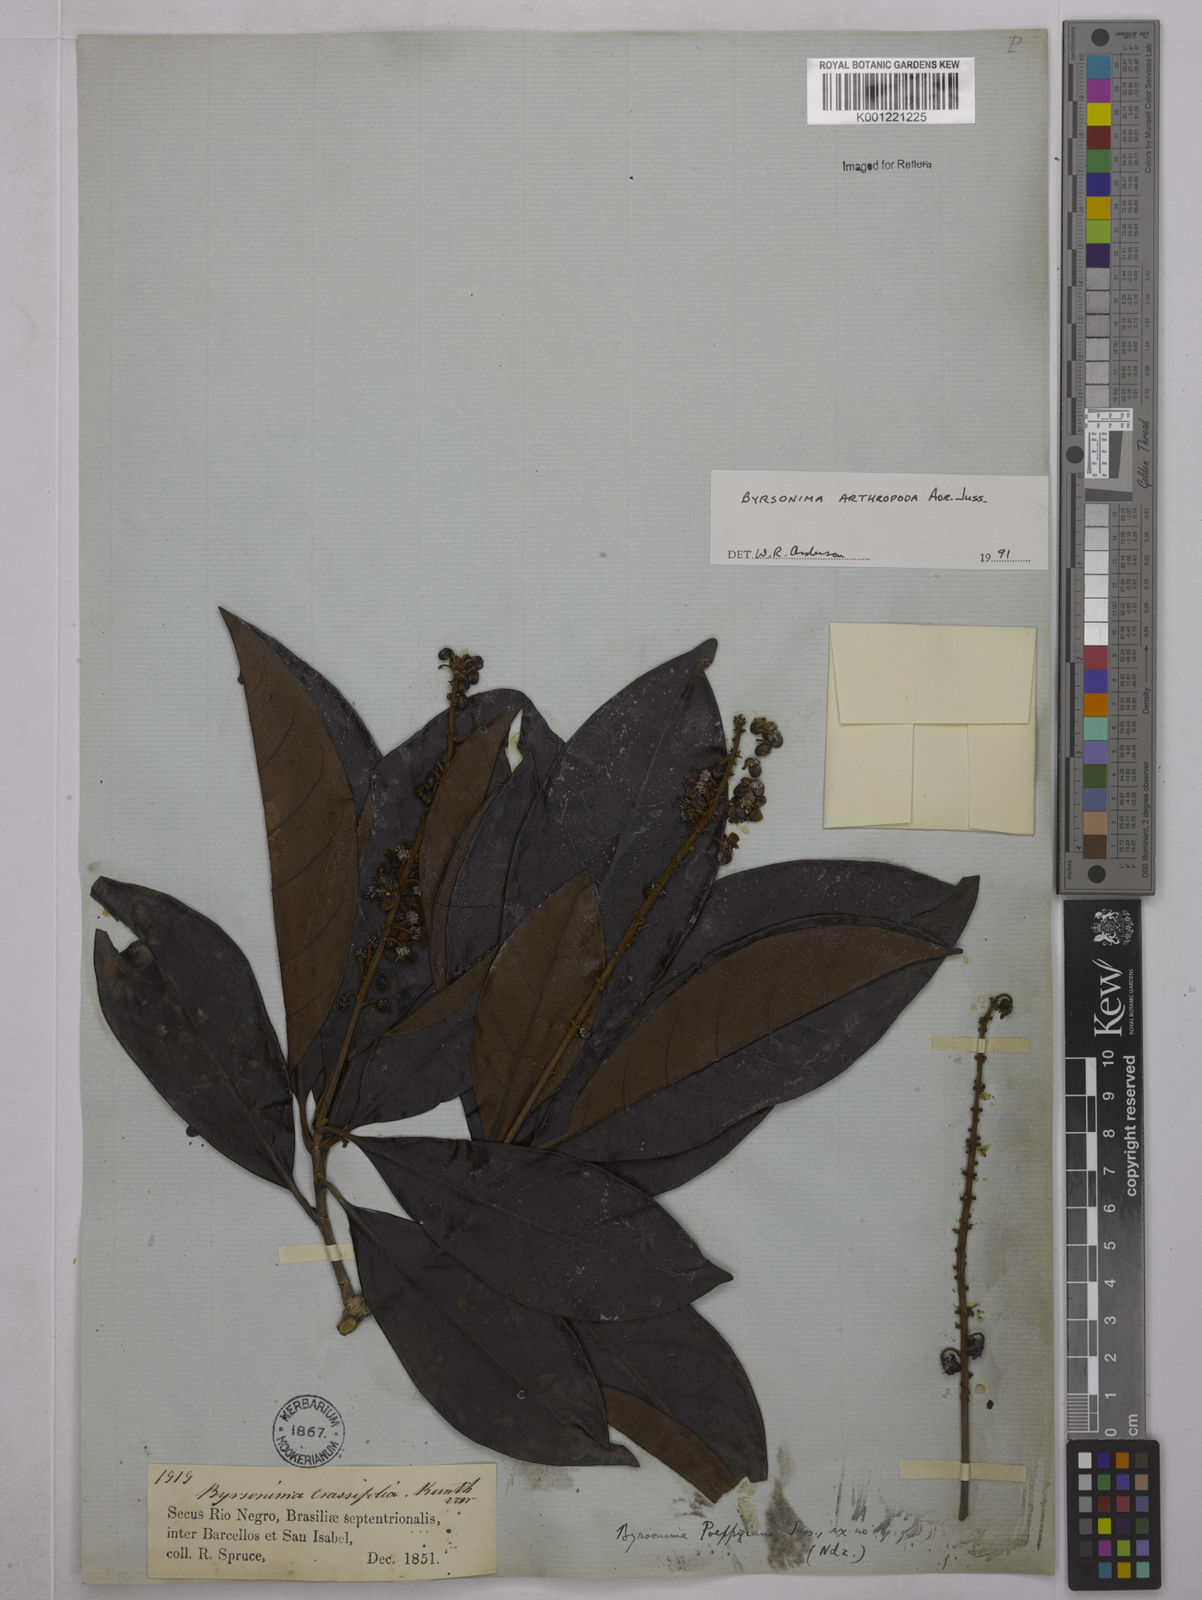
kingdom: Plantae
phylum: Tracheophyta
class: Magnoliopsida
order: Malpighiales
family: Malpighiaceae
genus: Byrsonima
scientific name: Byrsonima arthropoda
